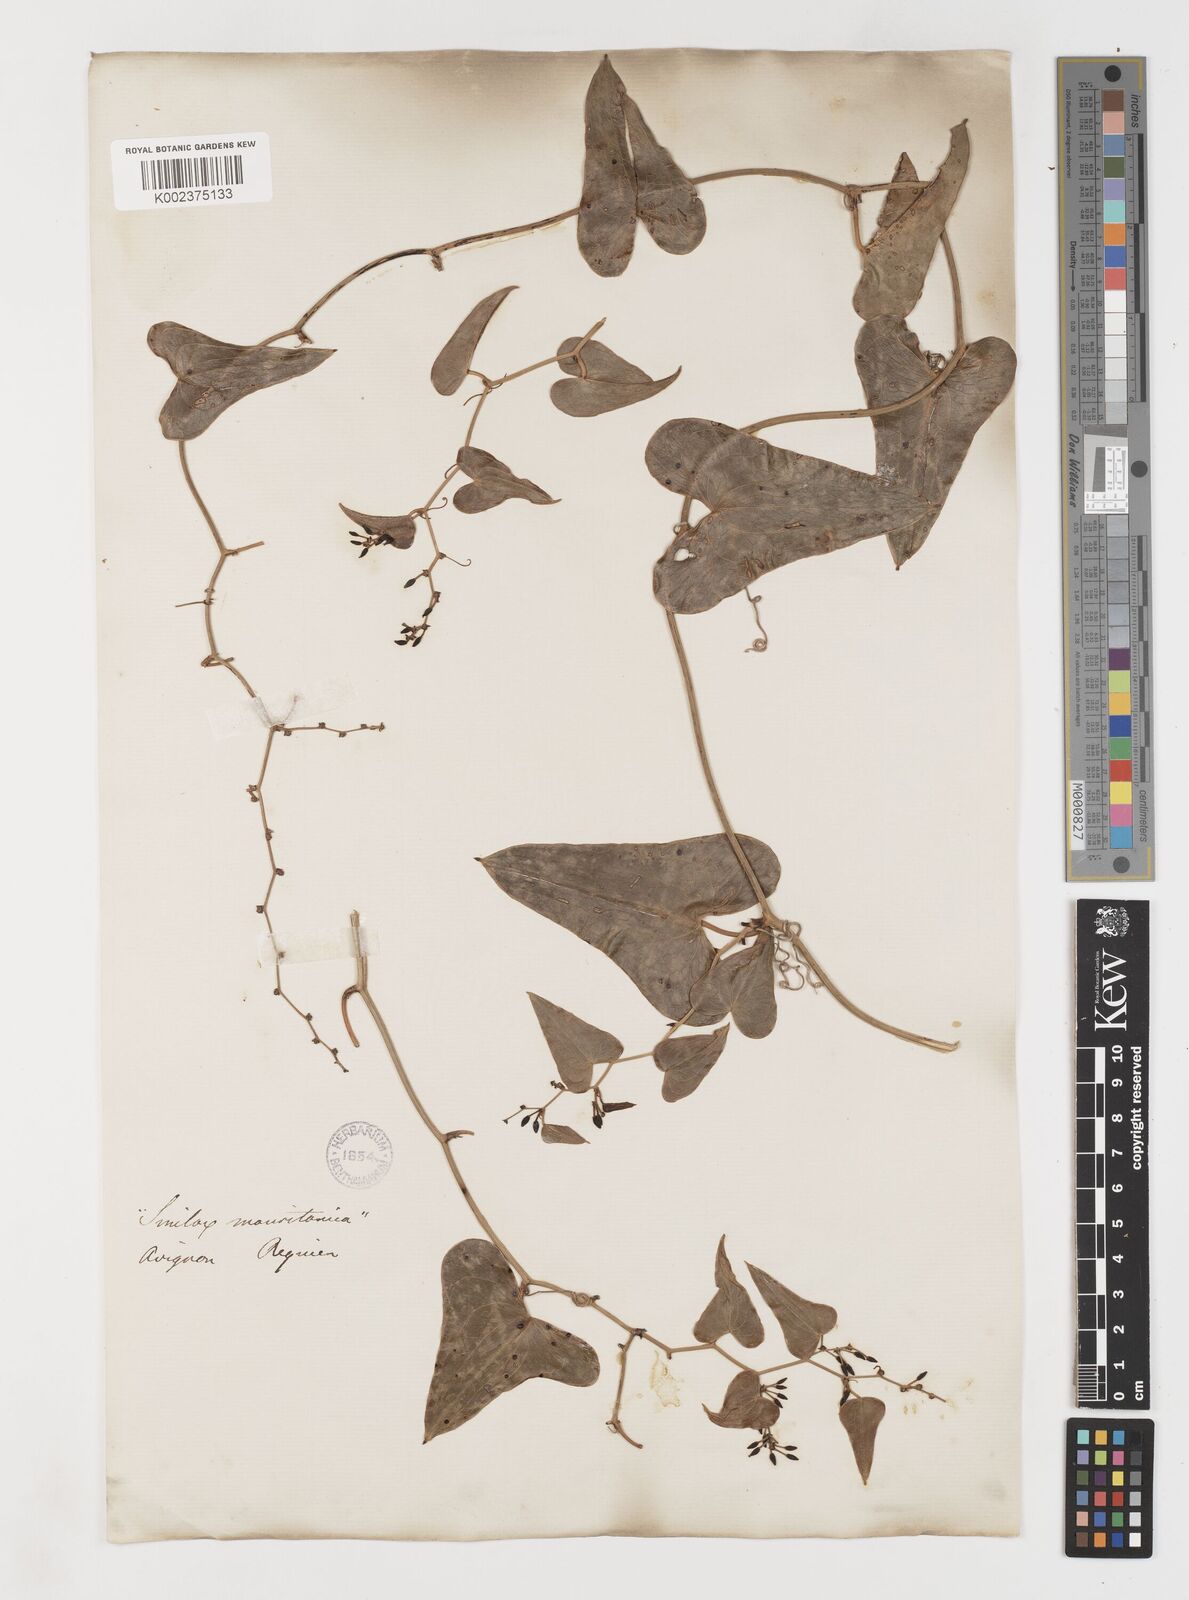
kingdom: Plantae
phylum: Tracheophyta
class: Liliopsida
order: Liliales
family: Smilacaceae
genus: Smilax
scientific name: Smilax aspera
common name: Common smilax
